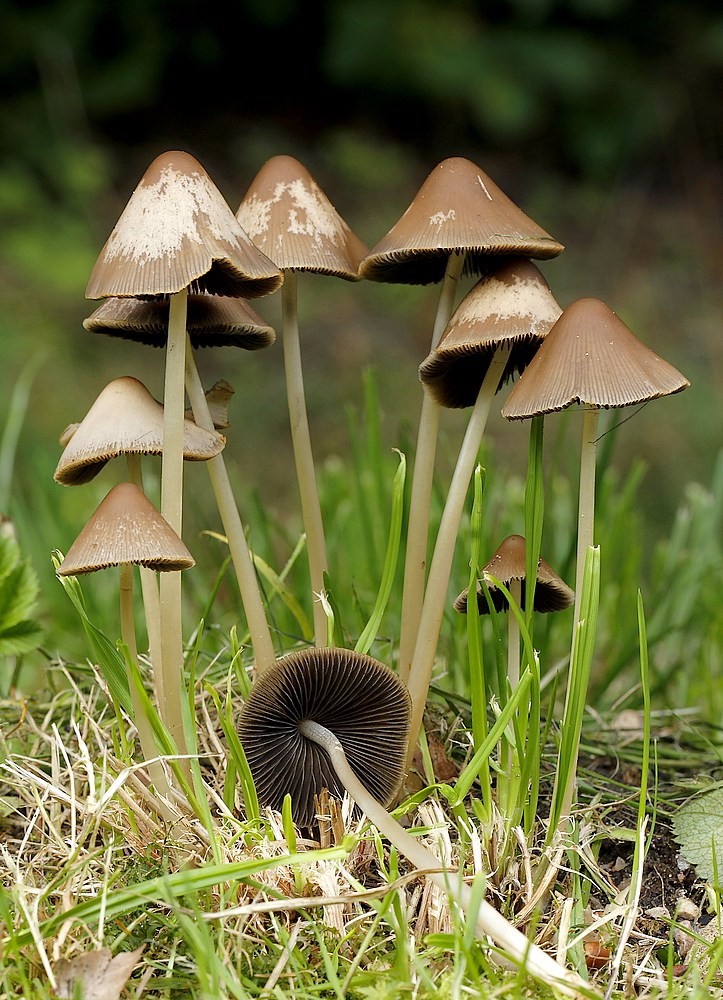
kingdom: Fungi
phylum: Basidiomycota
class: Agaricomycetes
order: Agaricales
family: Psathyrellaceae
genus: Parasola
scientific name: Parasola conopilea
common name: kegle-hjulhat
